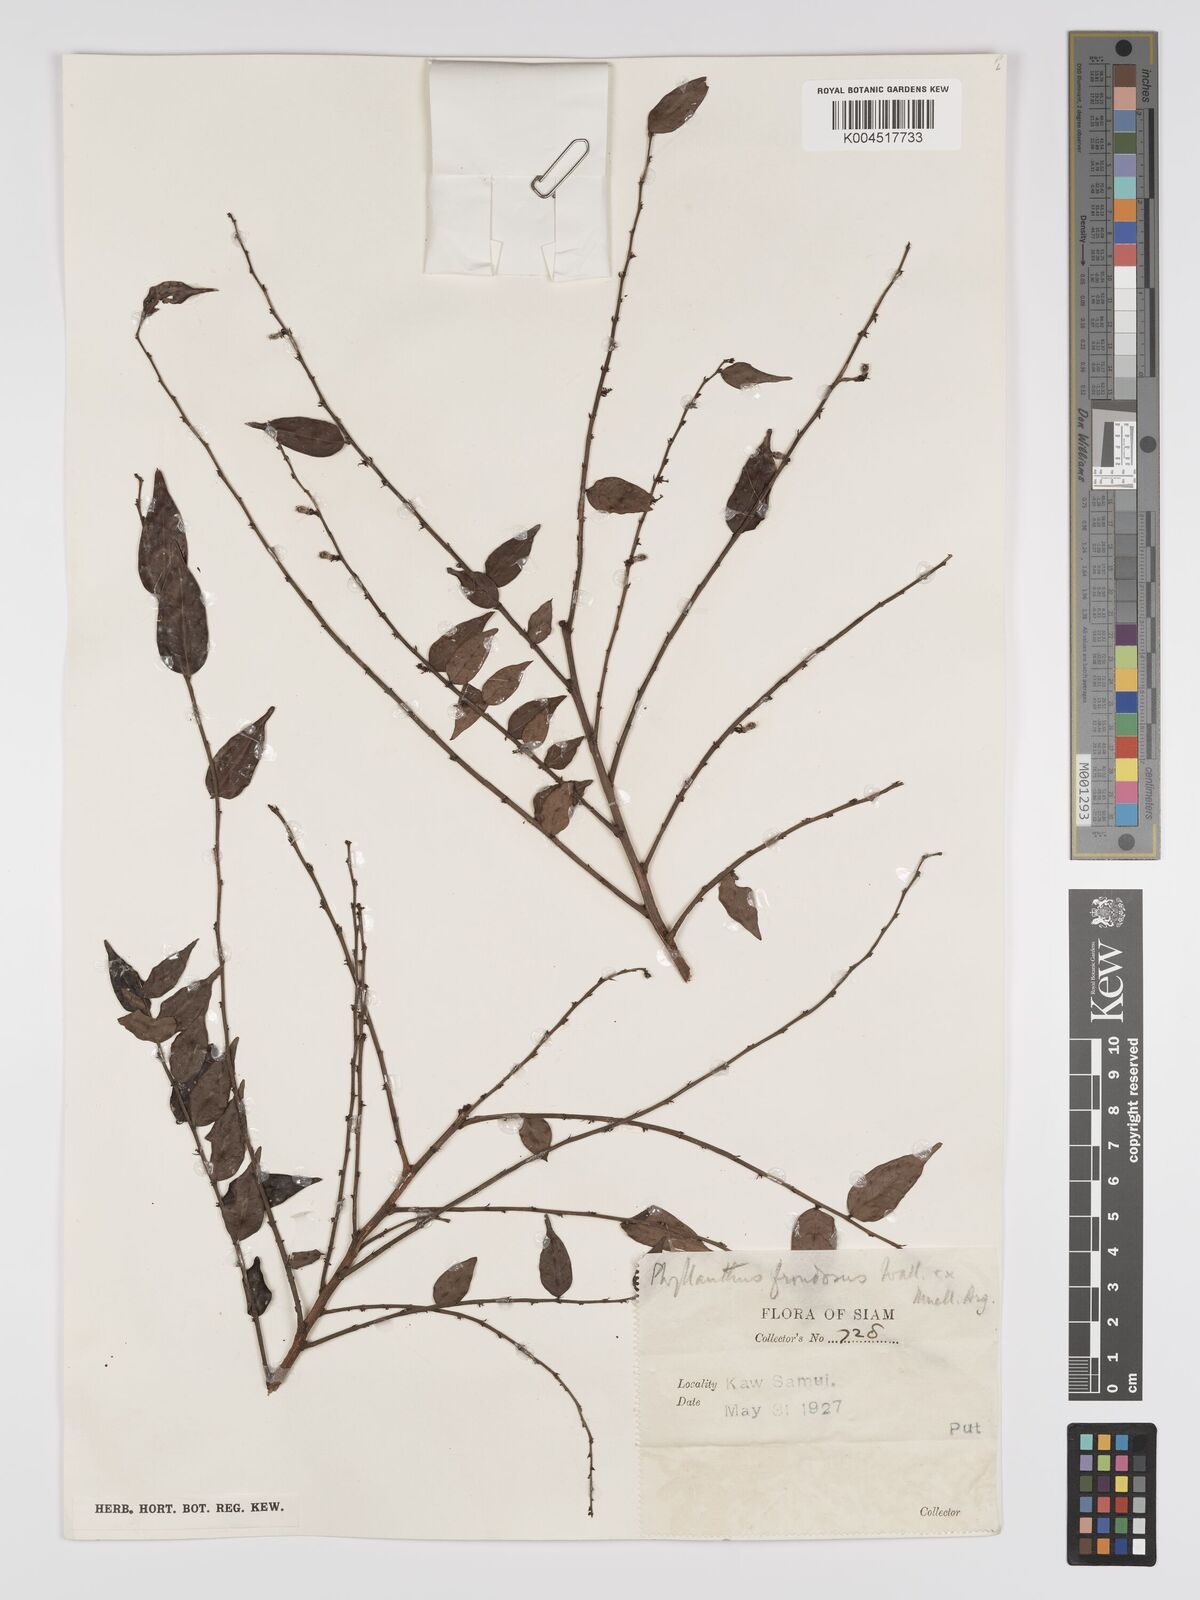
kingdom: Plantae
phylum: Tracheophyta
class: Magnoliopsida
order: Malpighiales
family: Phyllanthaceae
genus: Phyllanthus
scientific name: Phyllanthus
